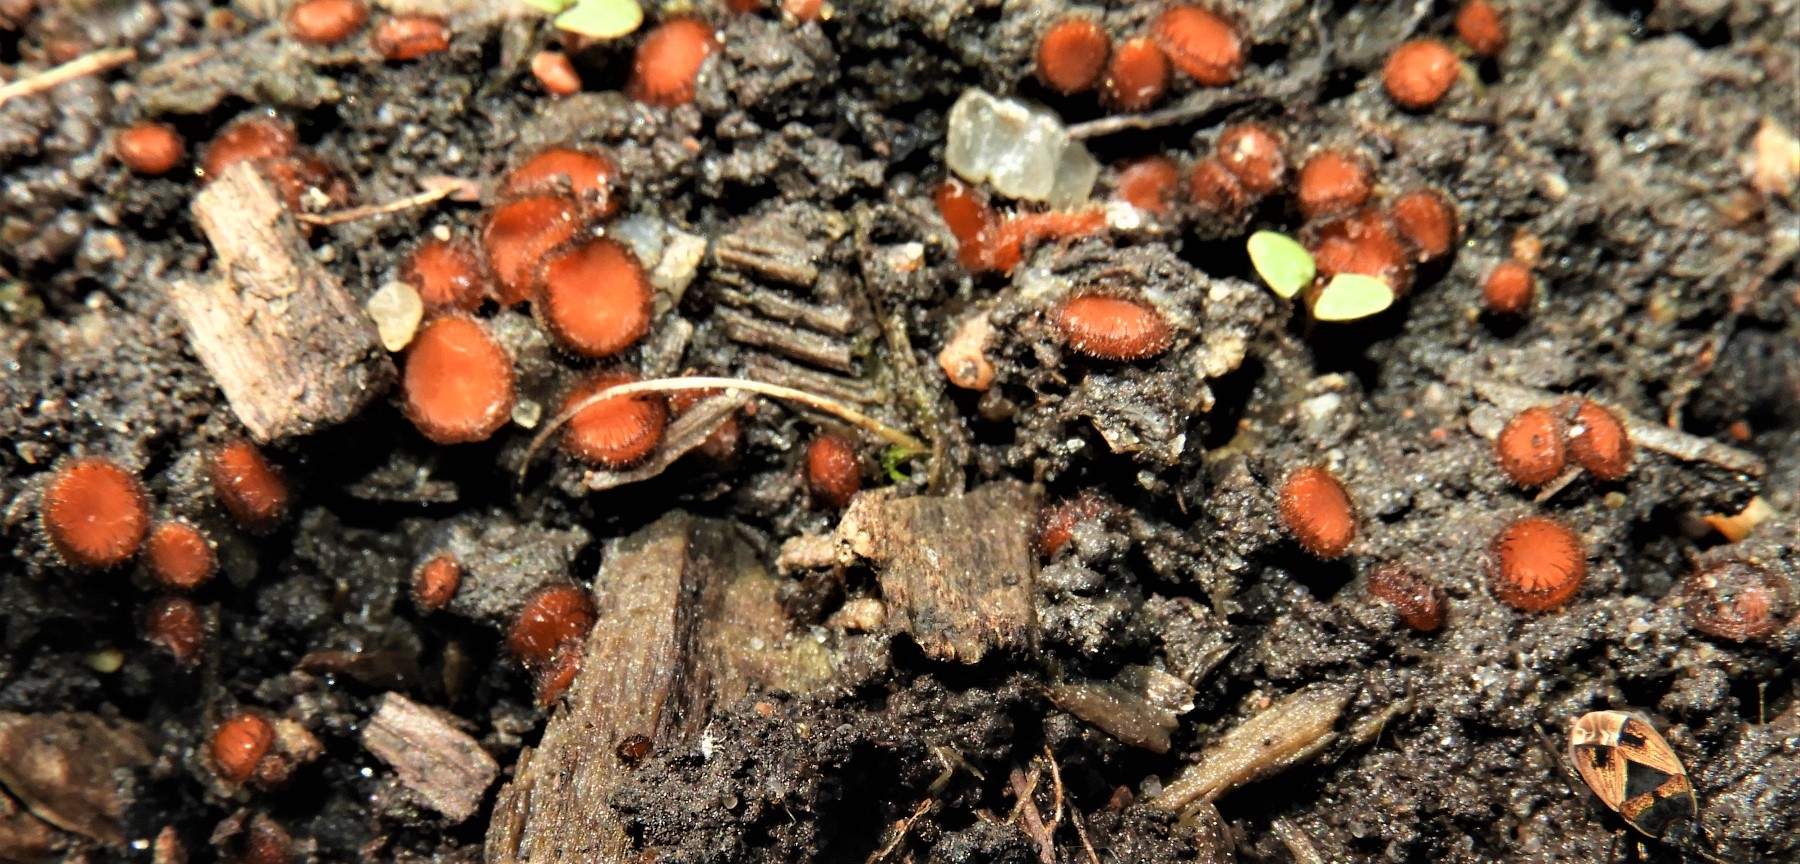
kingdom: Fungi
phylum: Ascomycota
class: Pezizomycetes
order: Pezizales
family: Pyronemataceae
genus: Scutellinia
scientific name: Scutellinia scutellata
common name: frynset skjoldbæger
